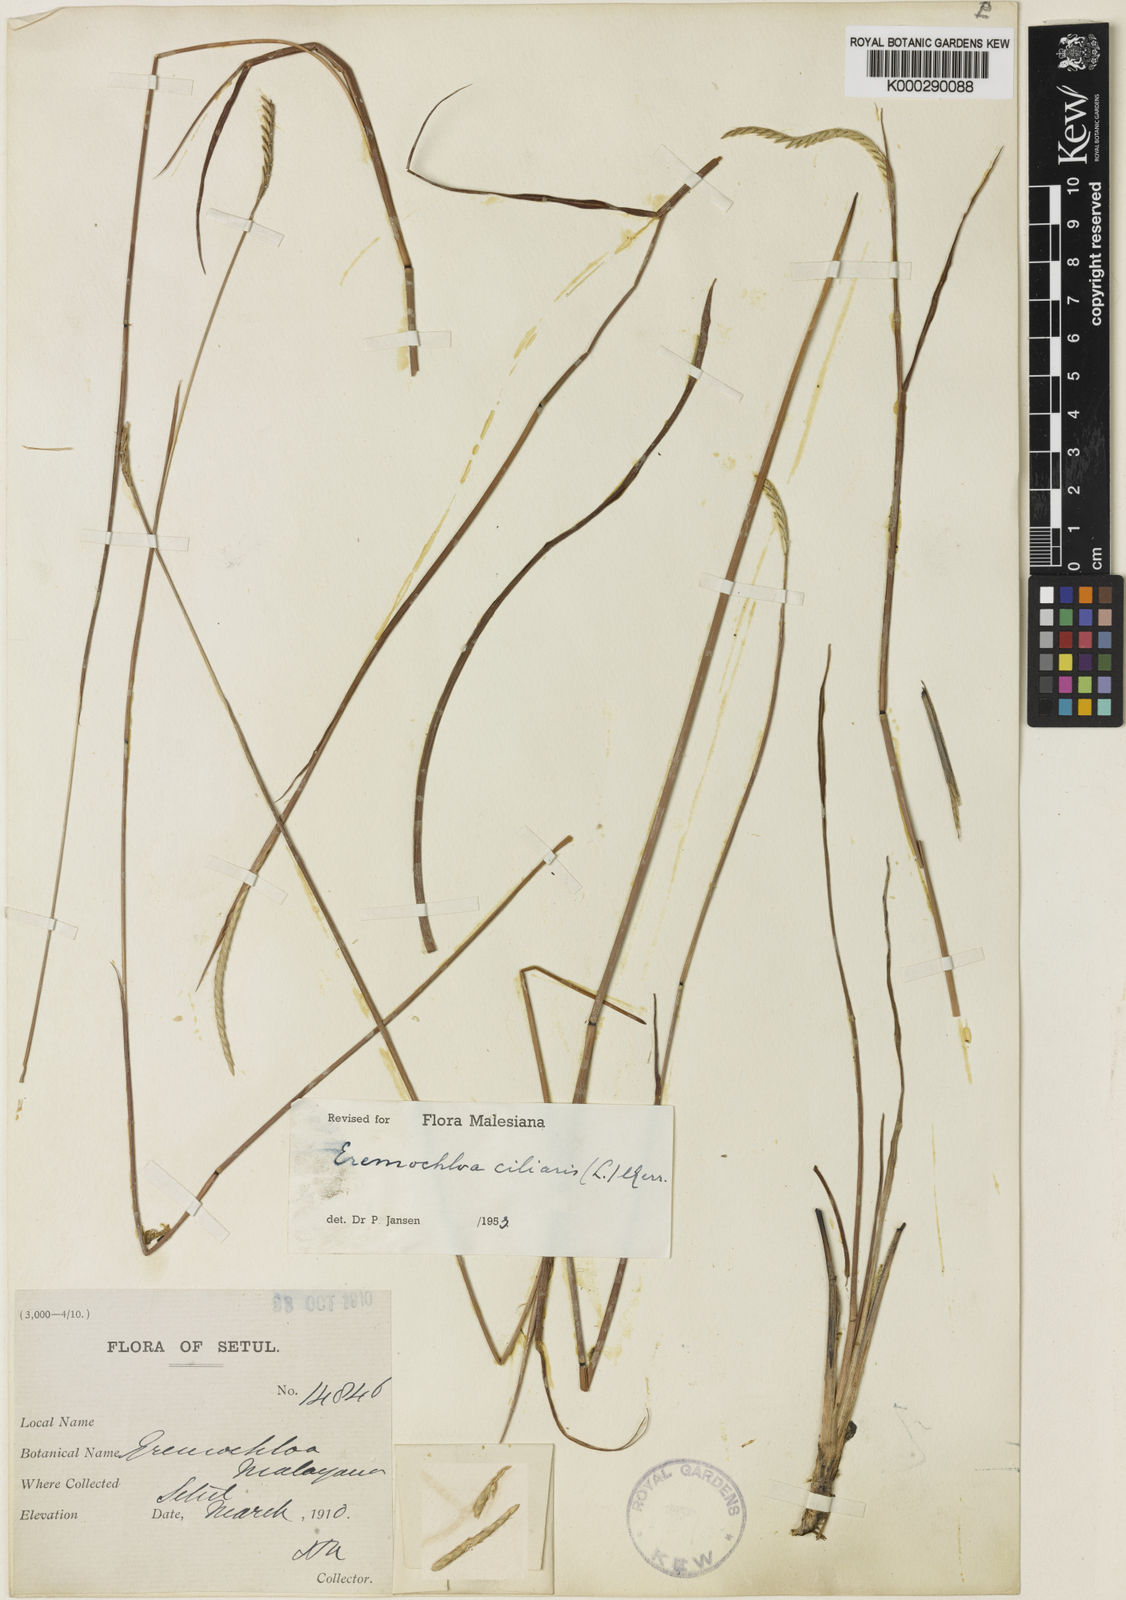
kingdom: Plantae
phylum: Tracheophyta
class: Liliopsida
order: Poales
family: Poaceae
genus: Eremochloa
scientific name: Eremochloa ciliaris
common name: Fringed centipede grass
